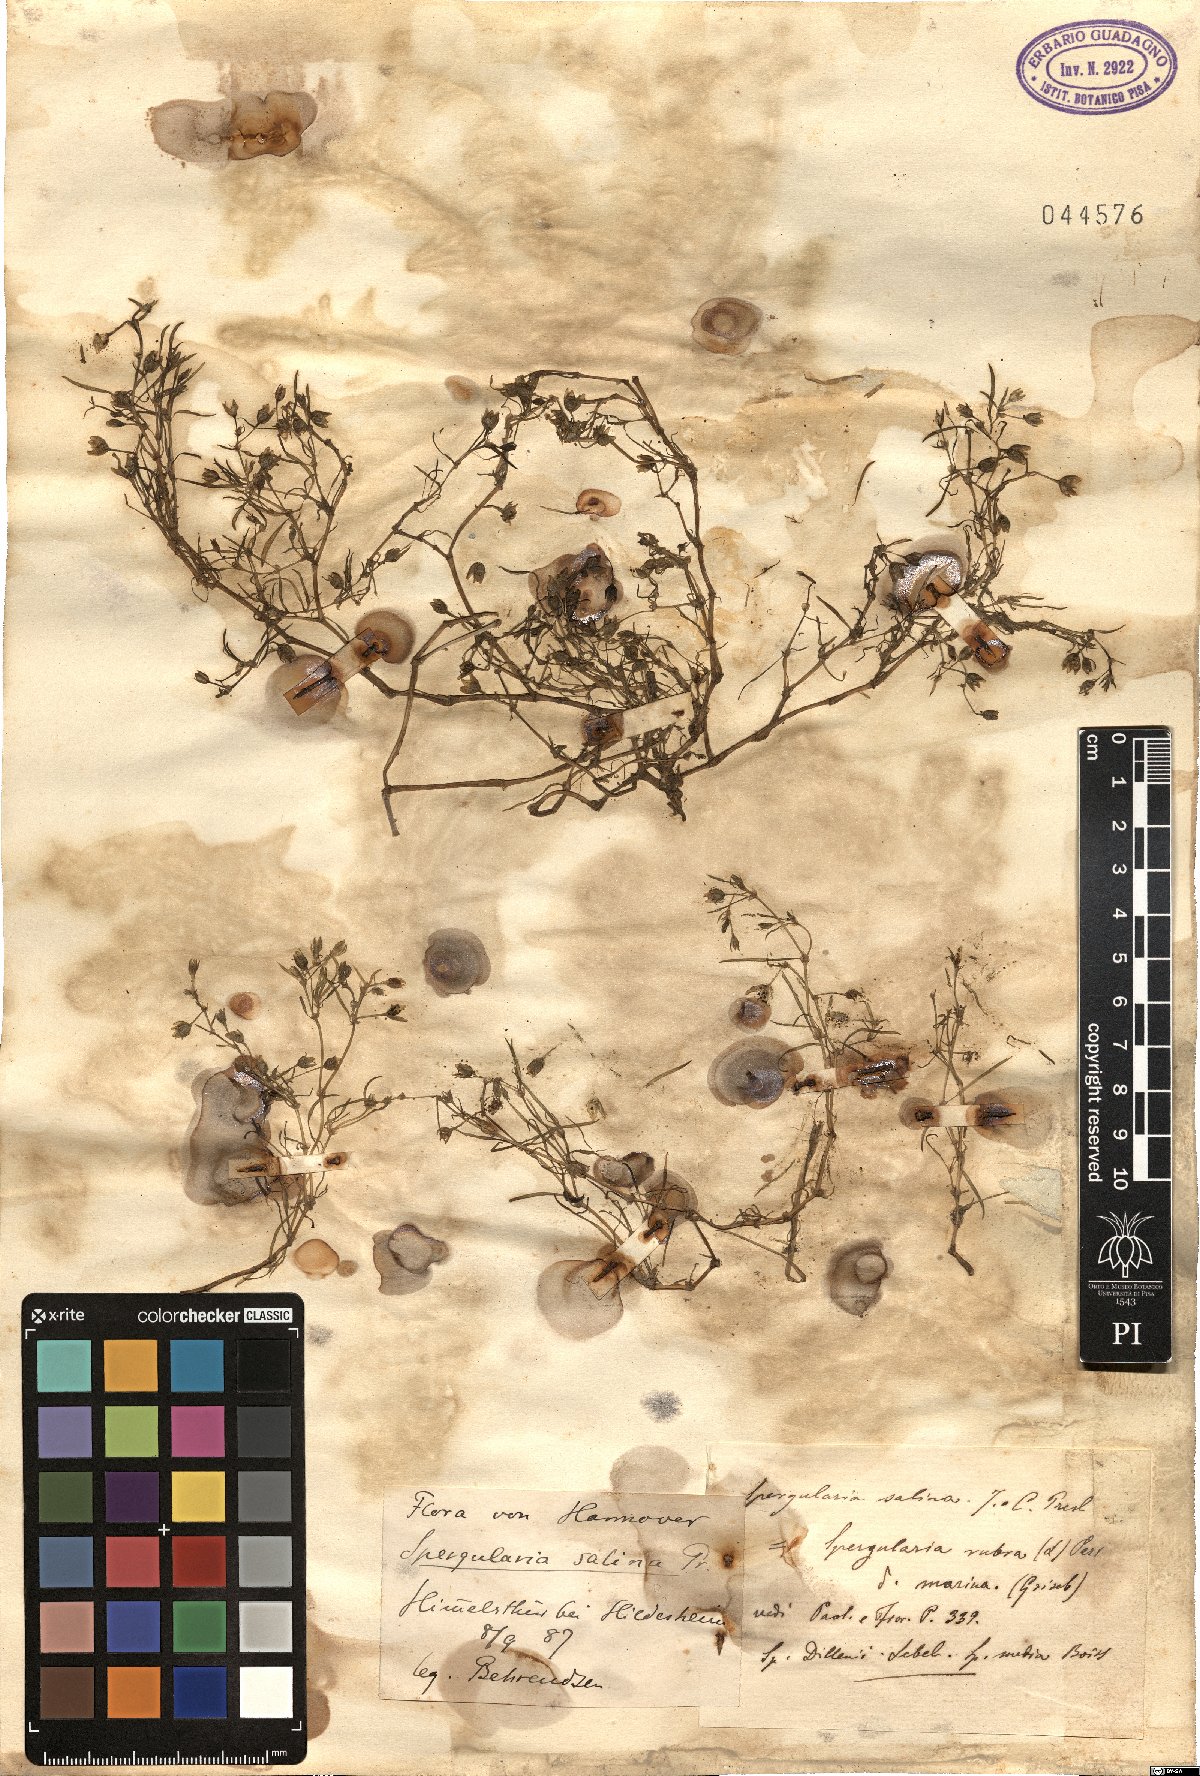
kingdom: Plantae
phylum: Tracheophyta
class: Magnoliopsida
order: Caryophyllales
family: Caryophyllaceae
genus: Spergularia
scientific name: Spergularia marina
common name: Lesser sea-spurrey
